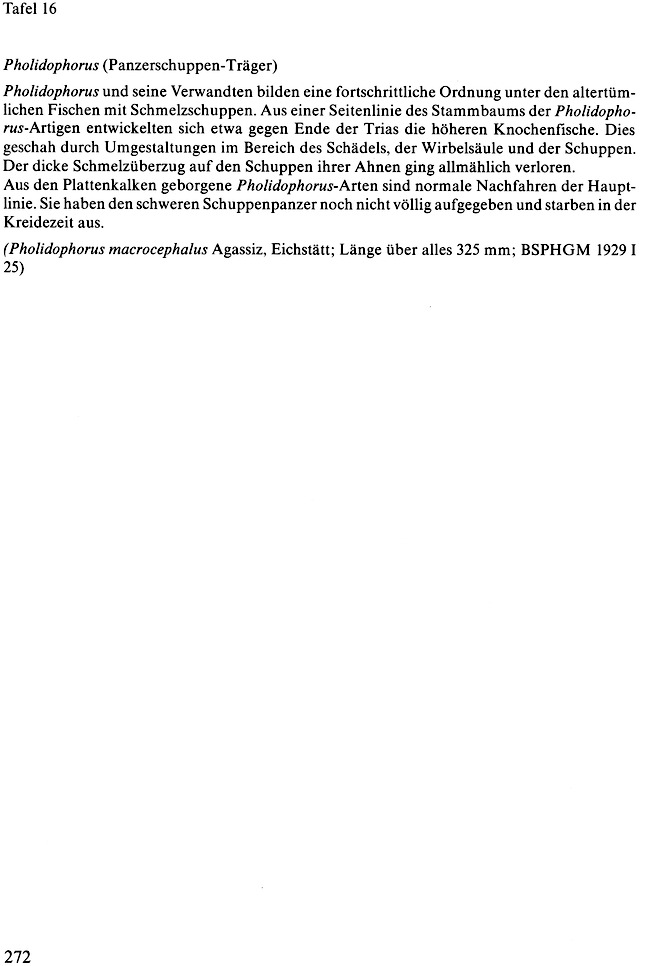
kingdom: Animalia
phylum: Chordata
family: Ankylophoridae
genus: Siemensichthys
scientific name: Siemensichthys macrocephalus
